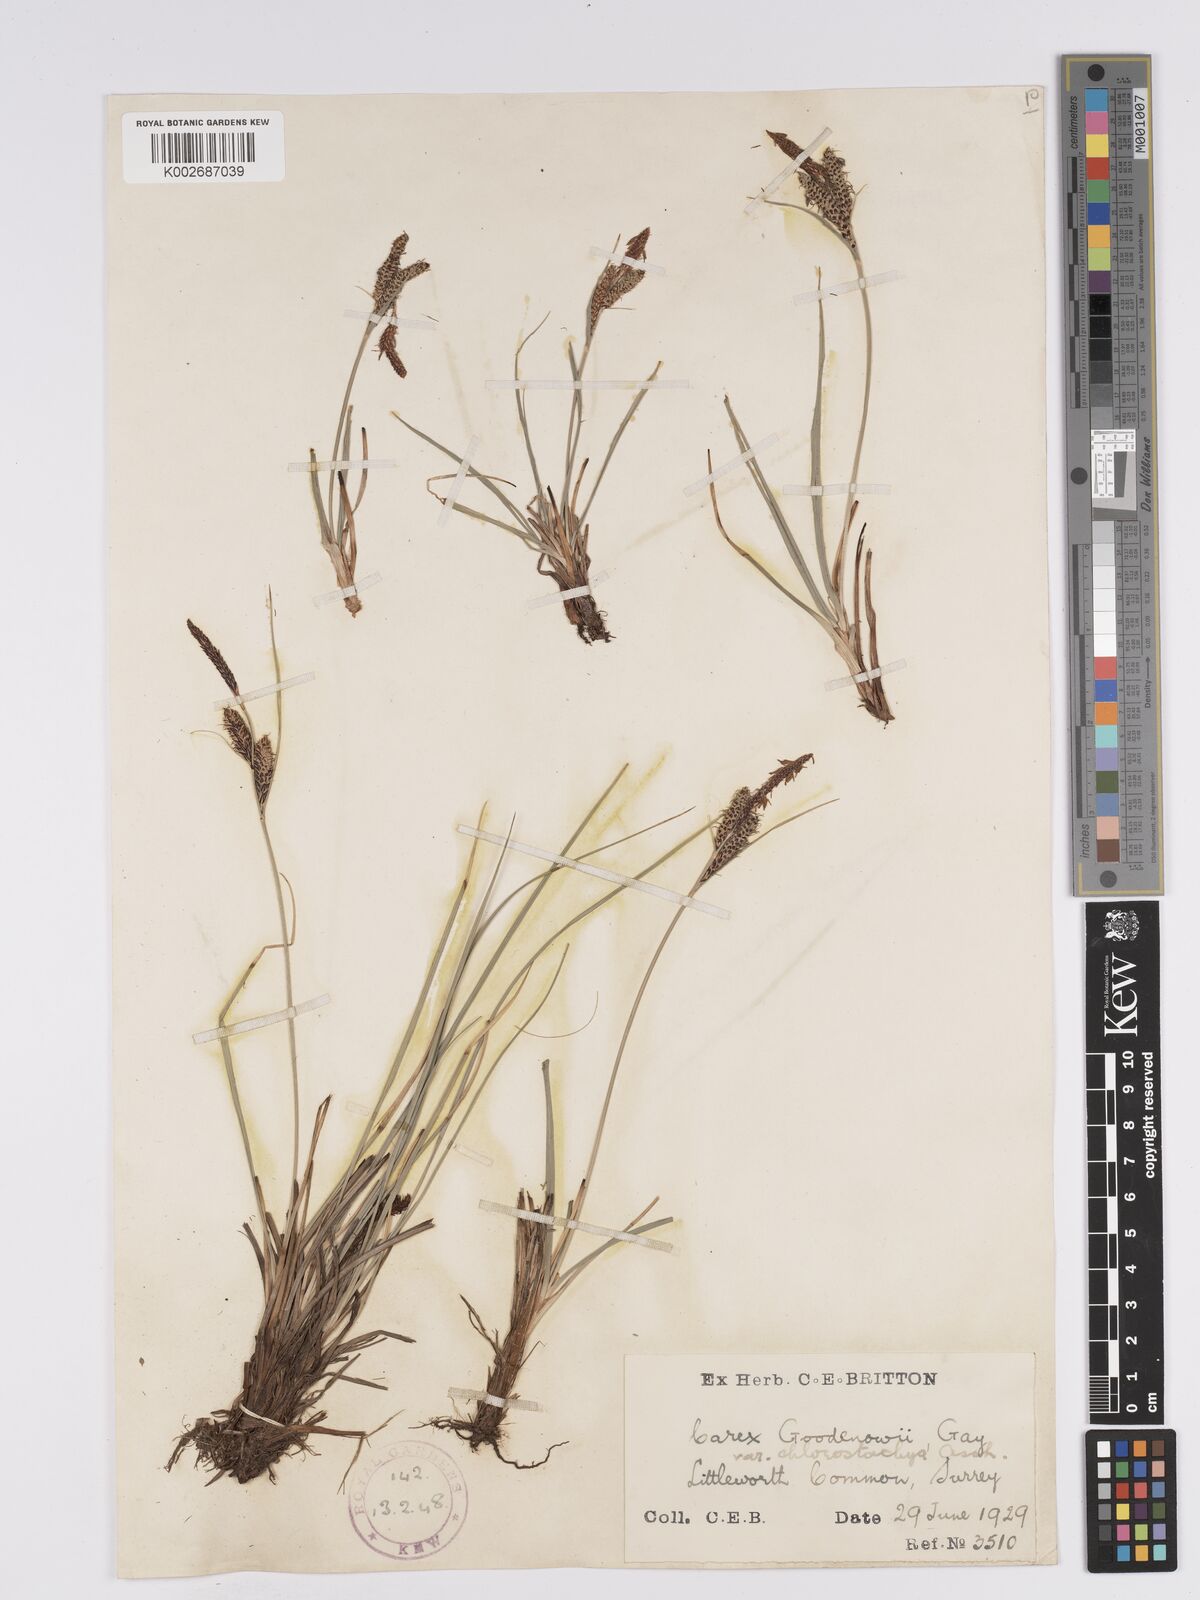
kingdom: Plantae
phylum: Tracheophyta
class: Liliopsida
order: Poales
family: Cyperaceae
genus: Carex
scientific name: Carex nigra
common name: Common sedge
